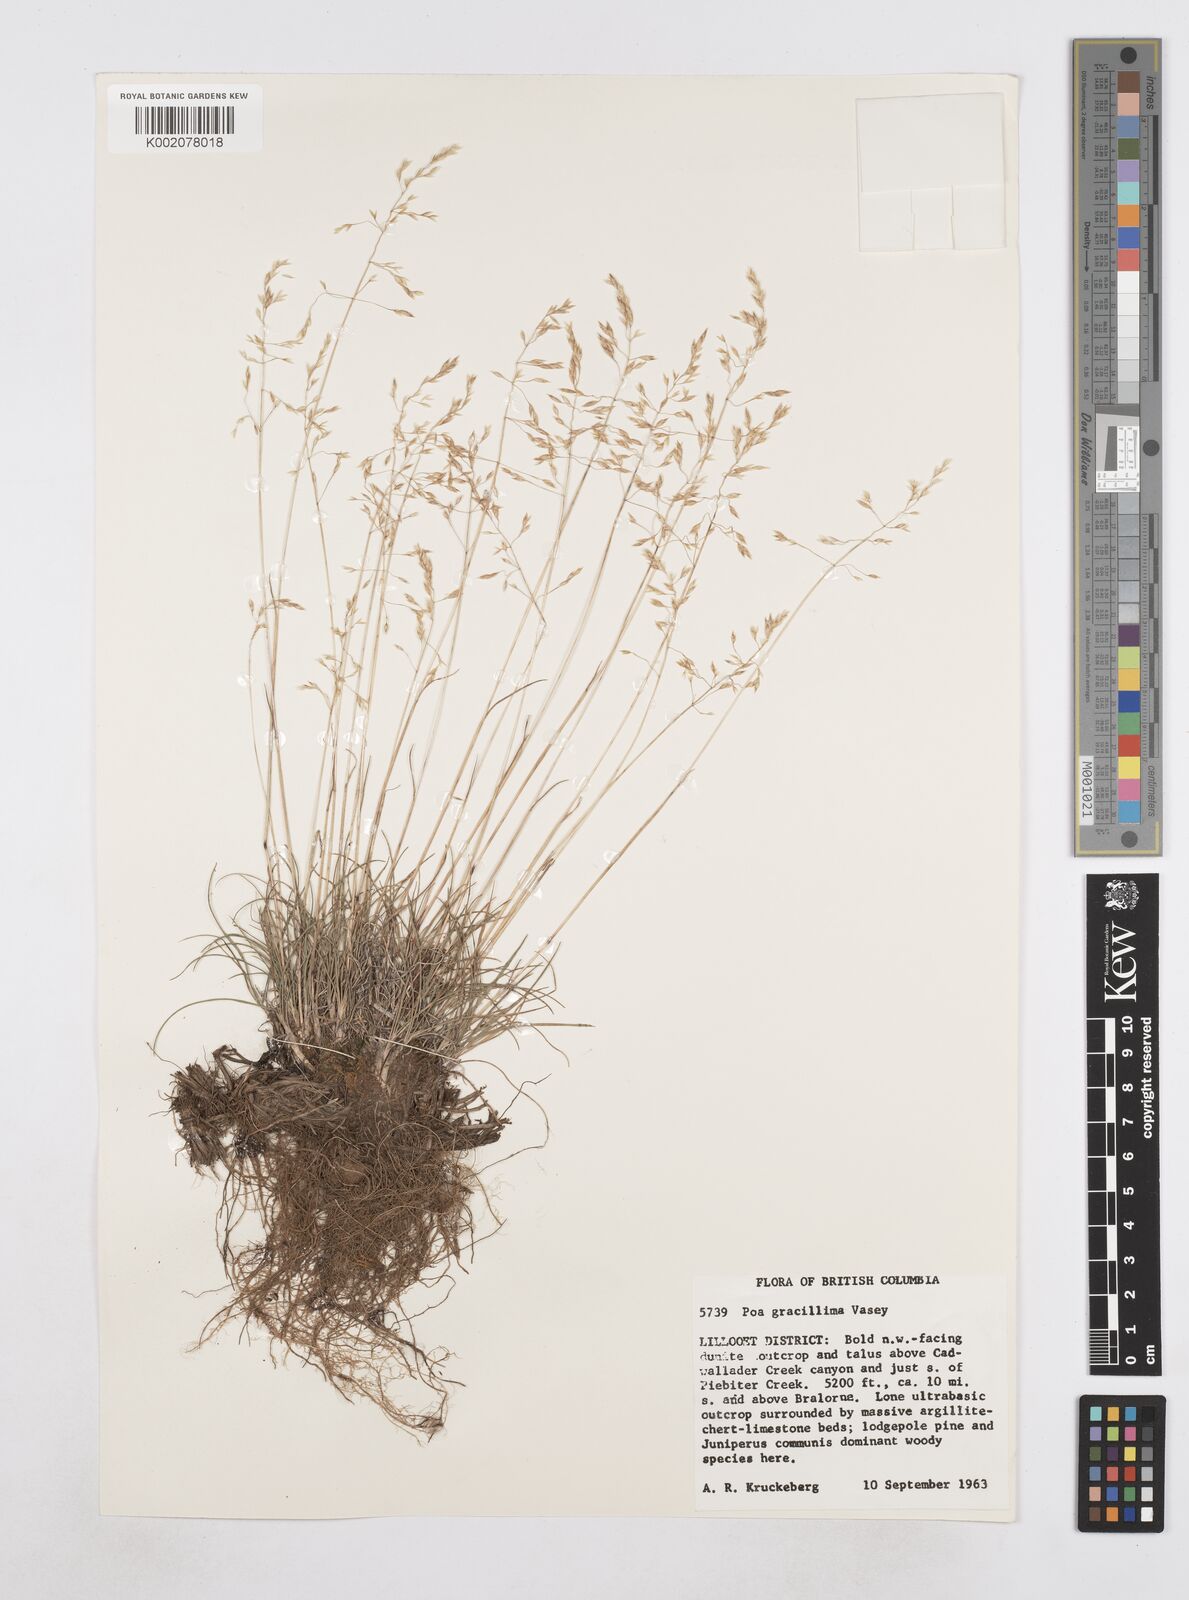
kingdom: Plantae
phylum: Tracheophyta
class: Liliopsida
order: Poales
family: Poaceae
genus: Poa
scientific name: Poa
